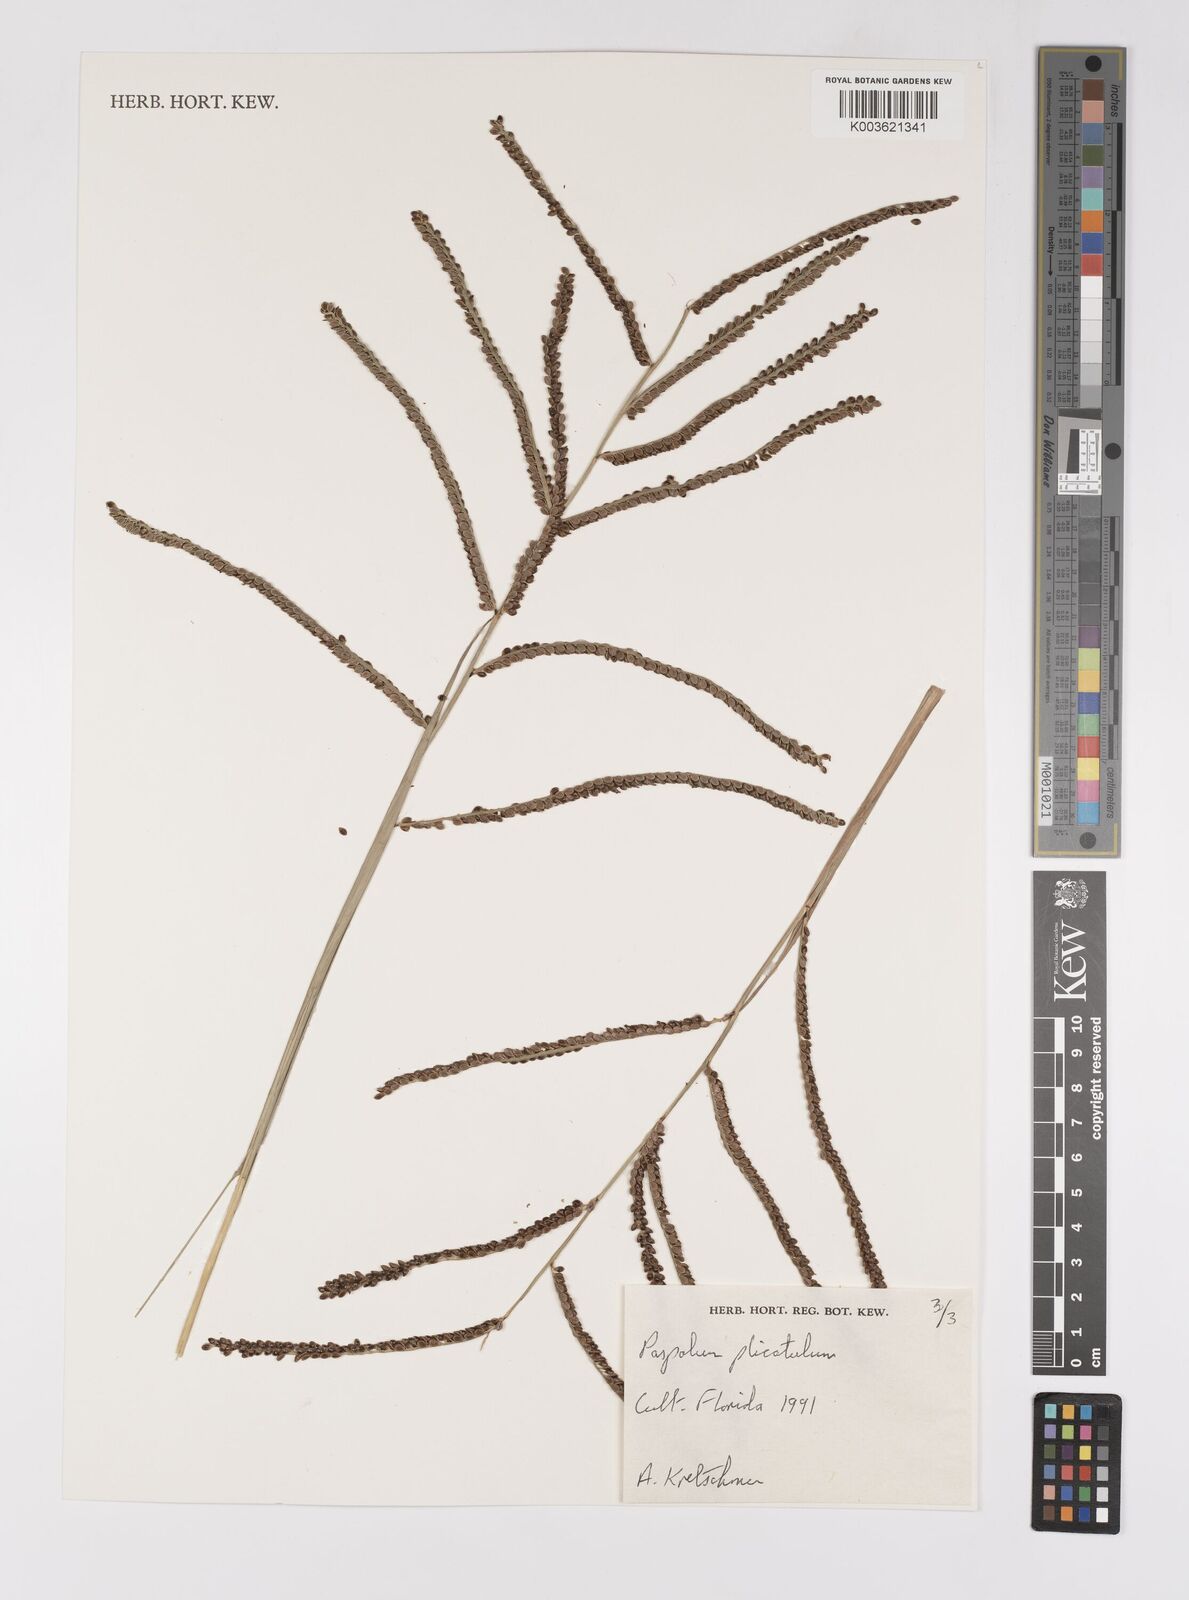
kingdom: Plantae
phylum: Tracheophyta
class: Liliopsida
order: Poales
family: Poaceae
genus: Paspalum
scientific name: Paspalum plicatulum
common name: Top paspalum
